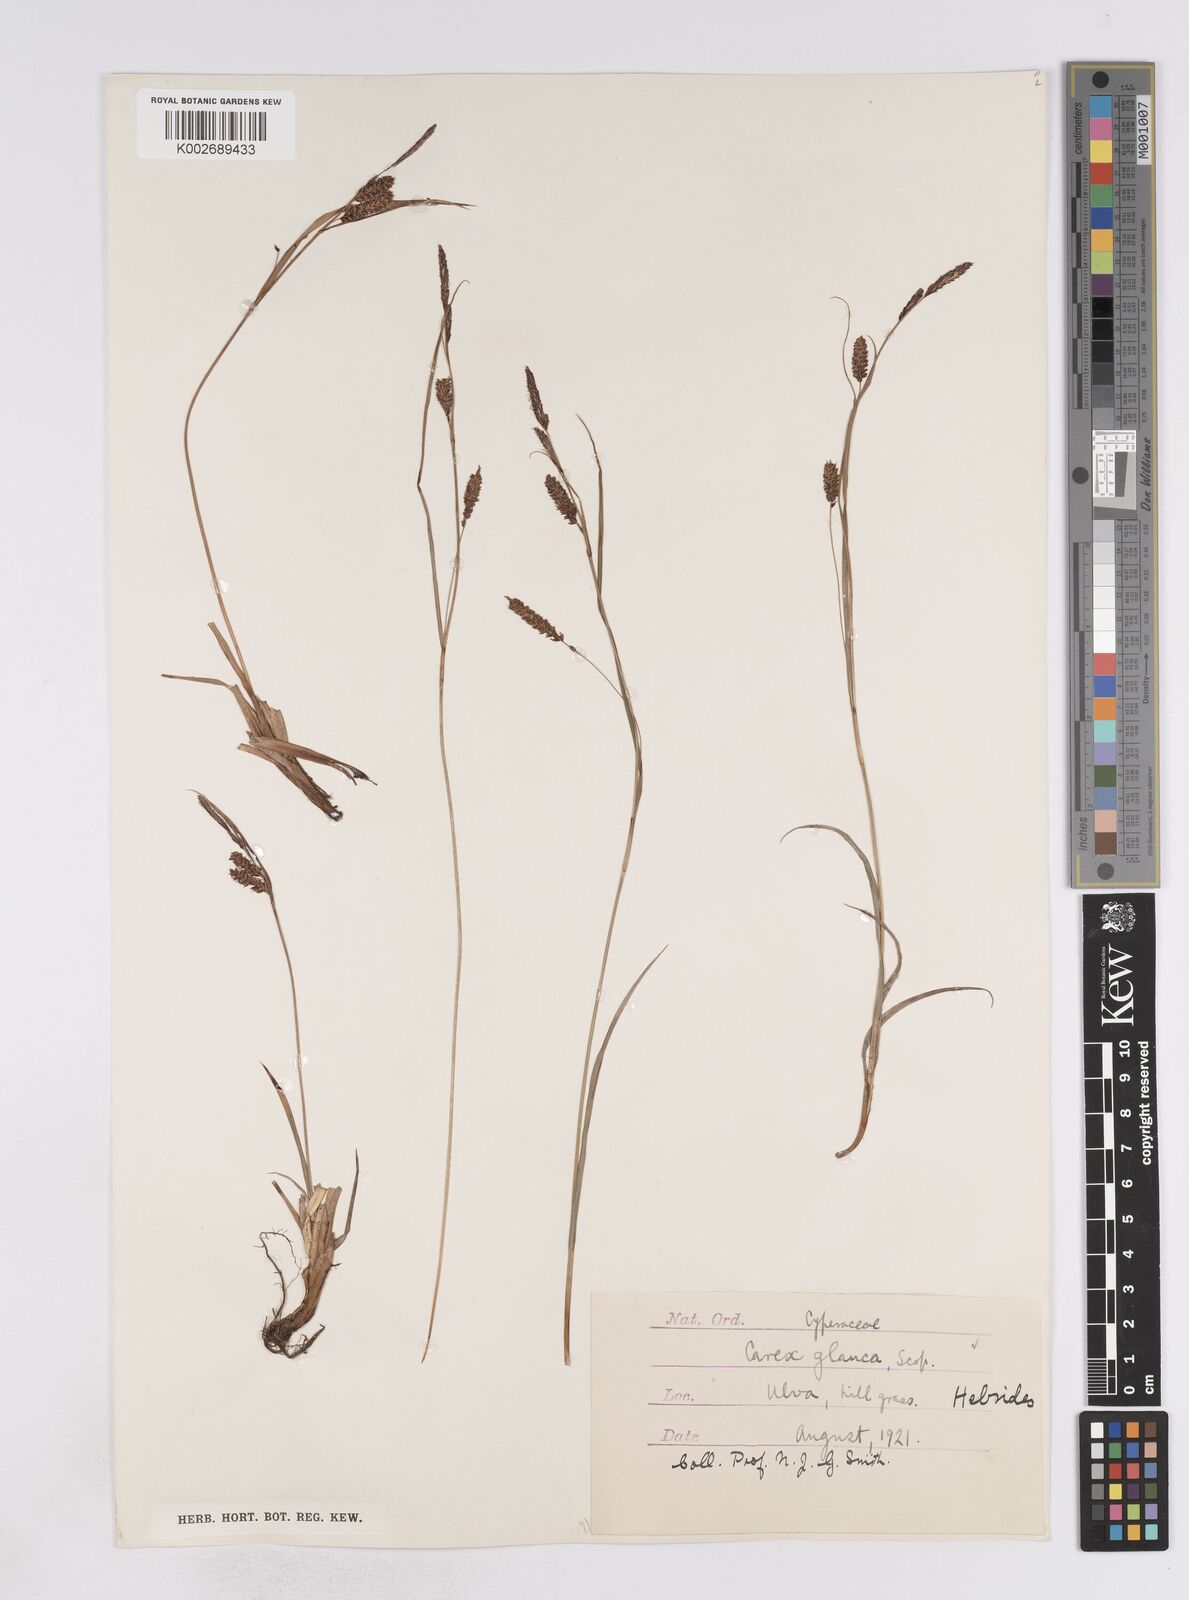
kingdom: Plantae
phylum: Tracheophyta
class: Liliopsida
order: Poales
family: Cyperaceae
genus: Carex
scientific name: Carex flacca
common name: Glaucous sedge
